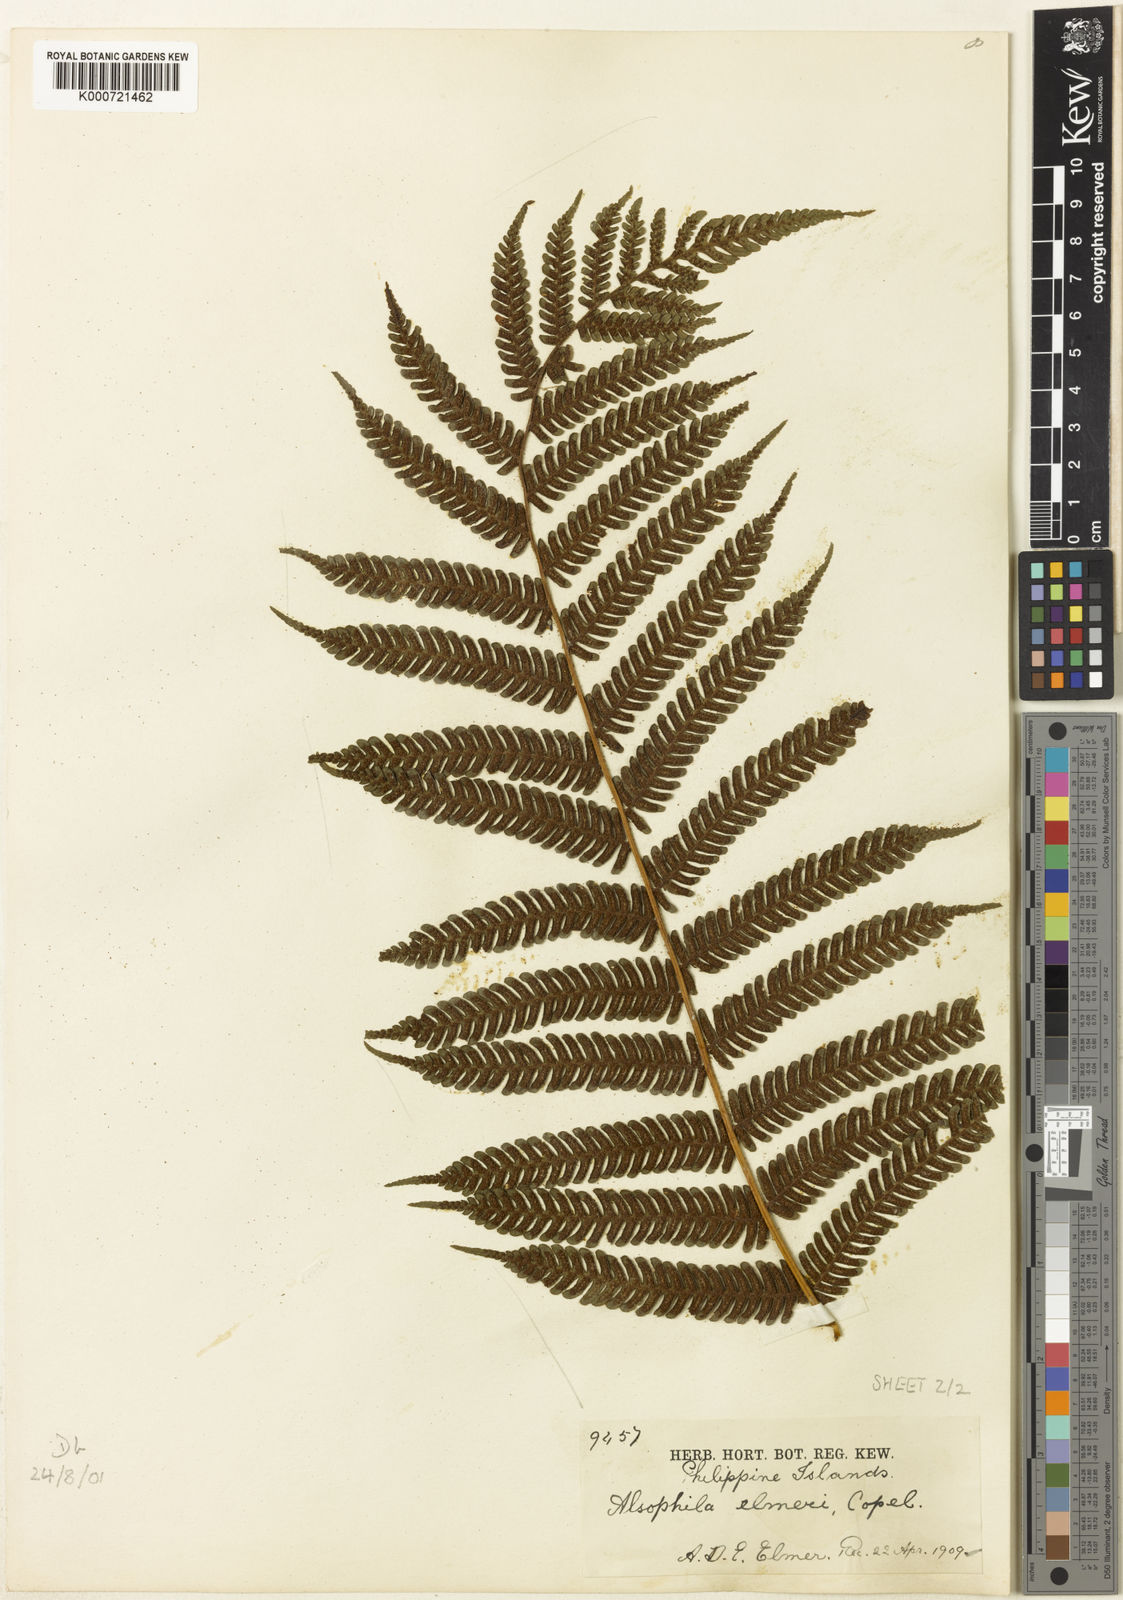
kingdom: Plantae
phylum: Tracheophyta
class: Polypodiopsida
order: Cyatheales
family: Cyatheaceae
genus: Sphaeropteris
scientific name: Sphaeropteris elmeri
